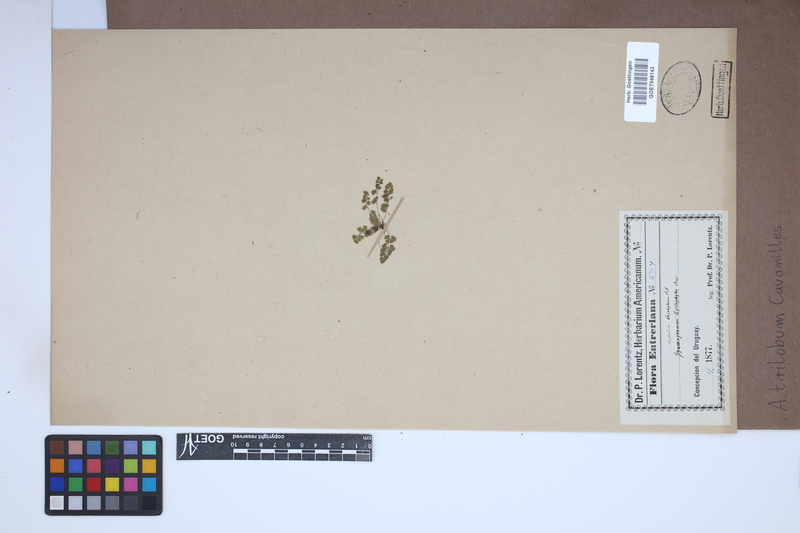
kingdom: Plantae
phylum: Tracheophyta
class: Polypodiopsida
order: Polypodiales
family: Aspleniaceae
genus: Asplenium
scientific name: Asplenium trilobum
